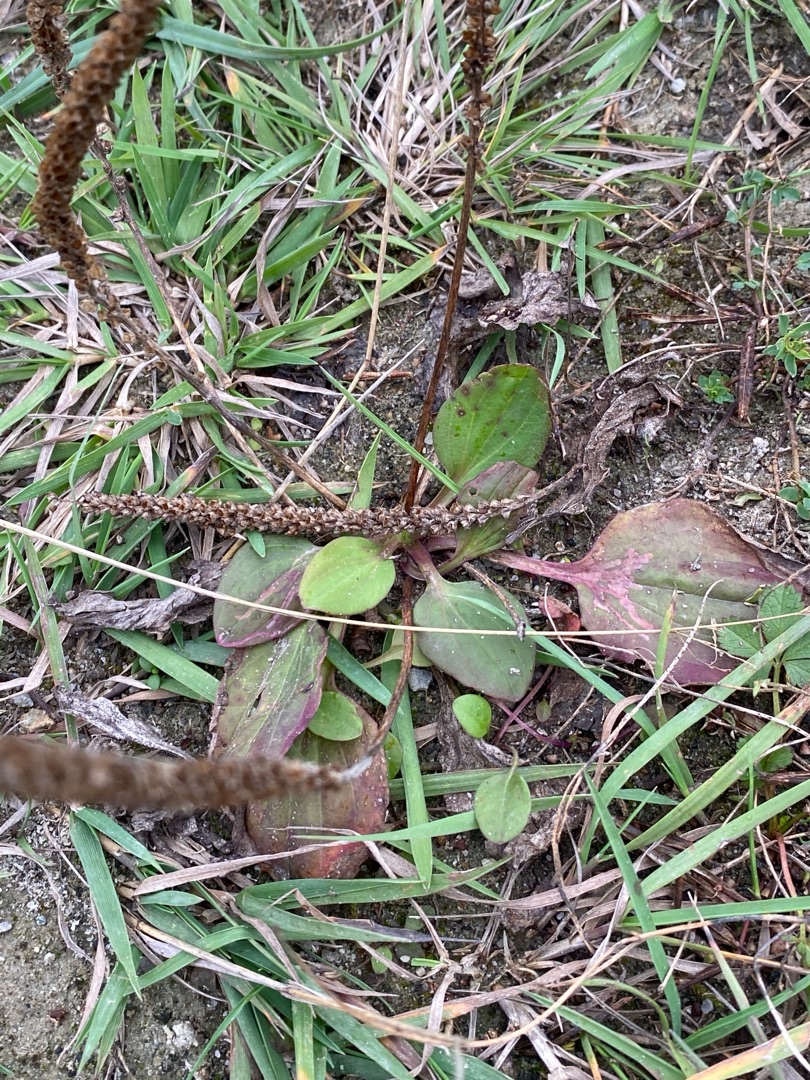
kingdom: Plantae
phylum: Tracheophyta
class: Magnoliopsida
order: Lamiales
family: Plantaginaceae
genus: Plantago
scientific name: Plantago major
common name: Glat vejbred
